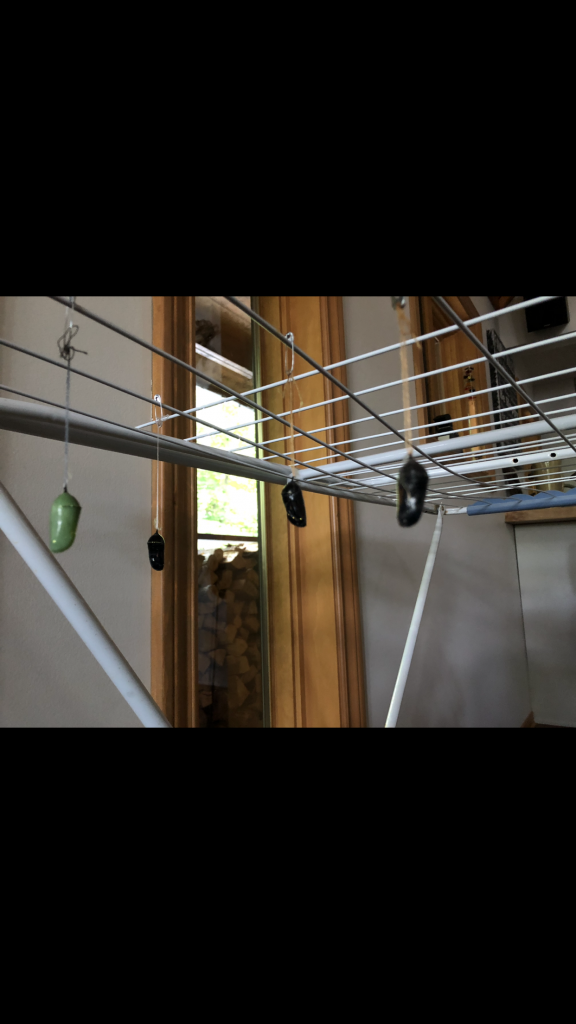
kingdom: Animalia
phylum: Arthropoda
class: Insecta
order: Lepidoptera
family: Nymphalidae
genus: Danaus
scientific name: Danaus plexippus
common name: Monarch
